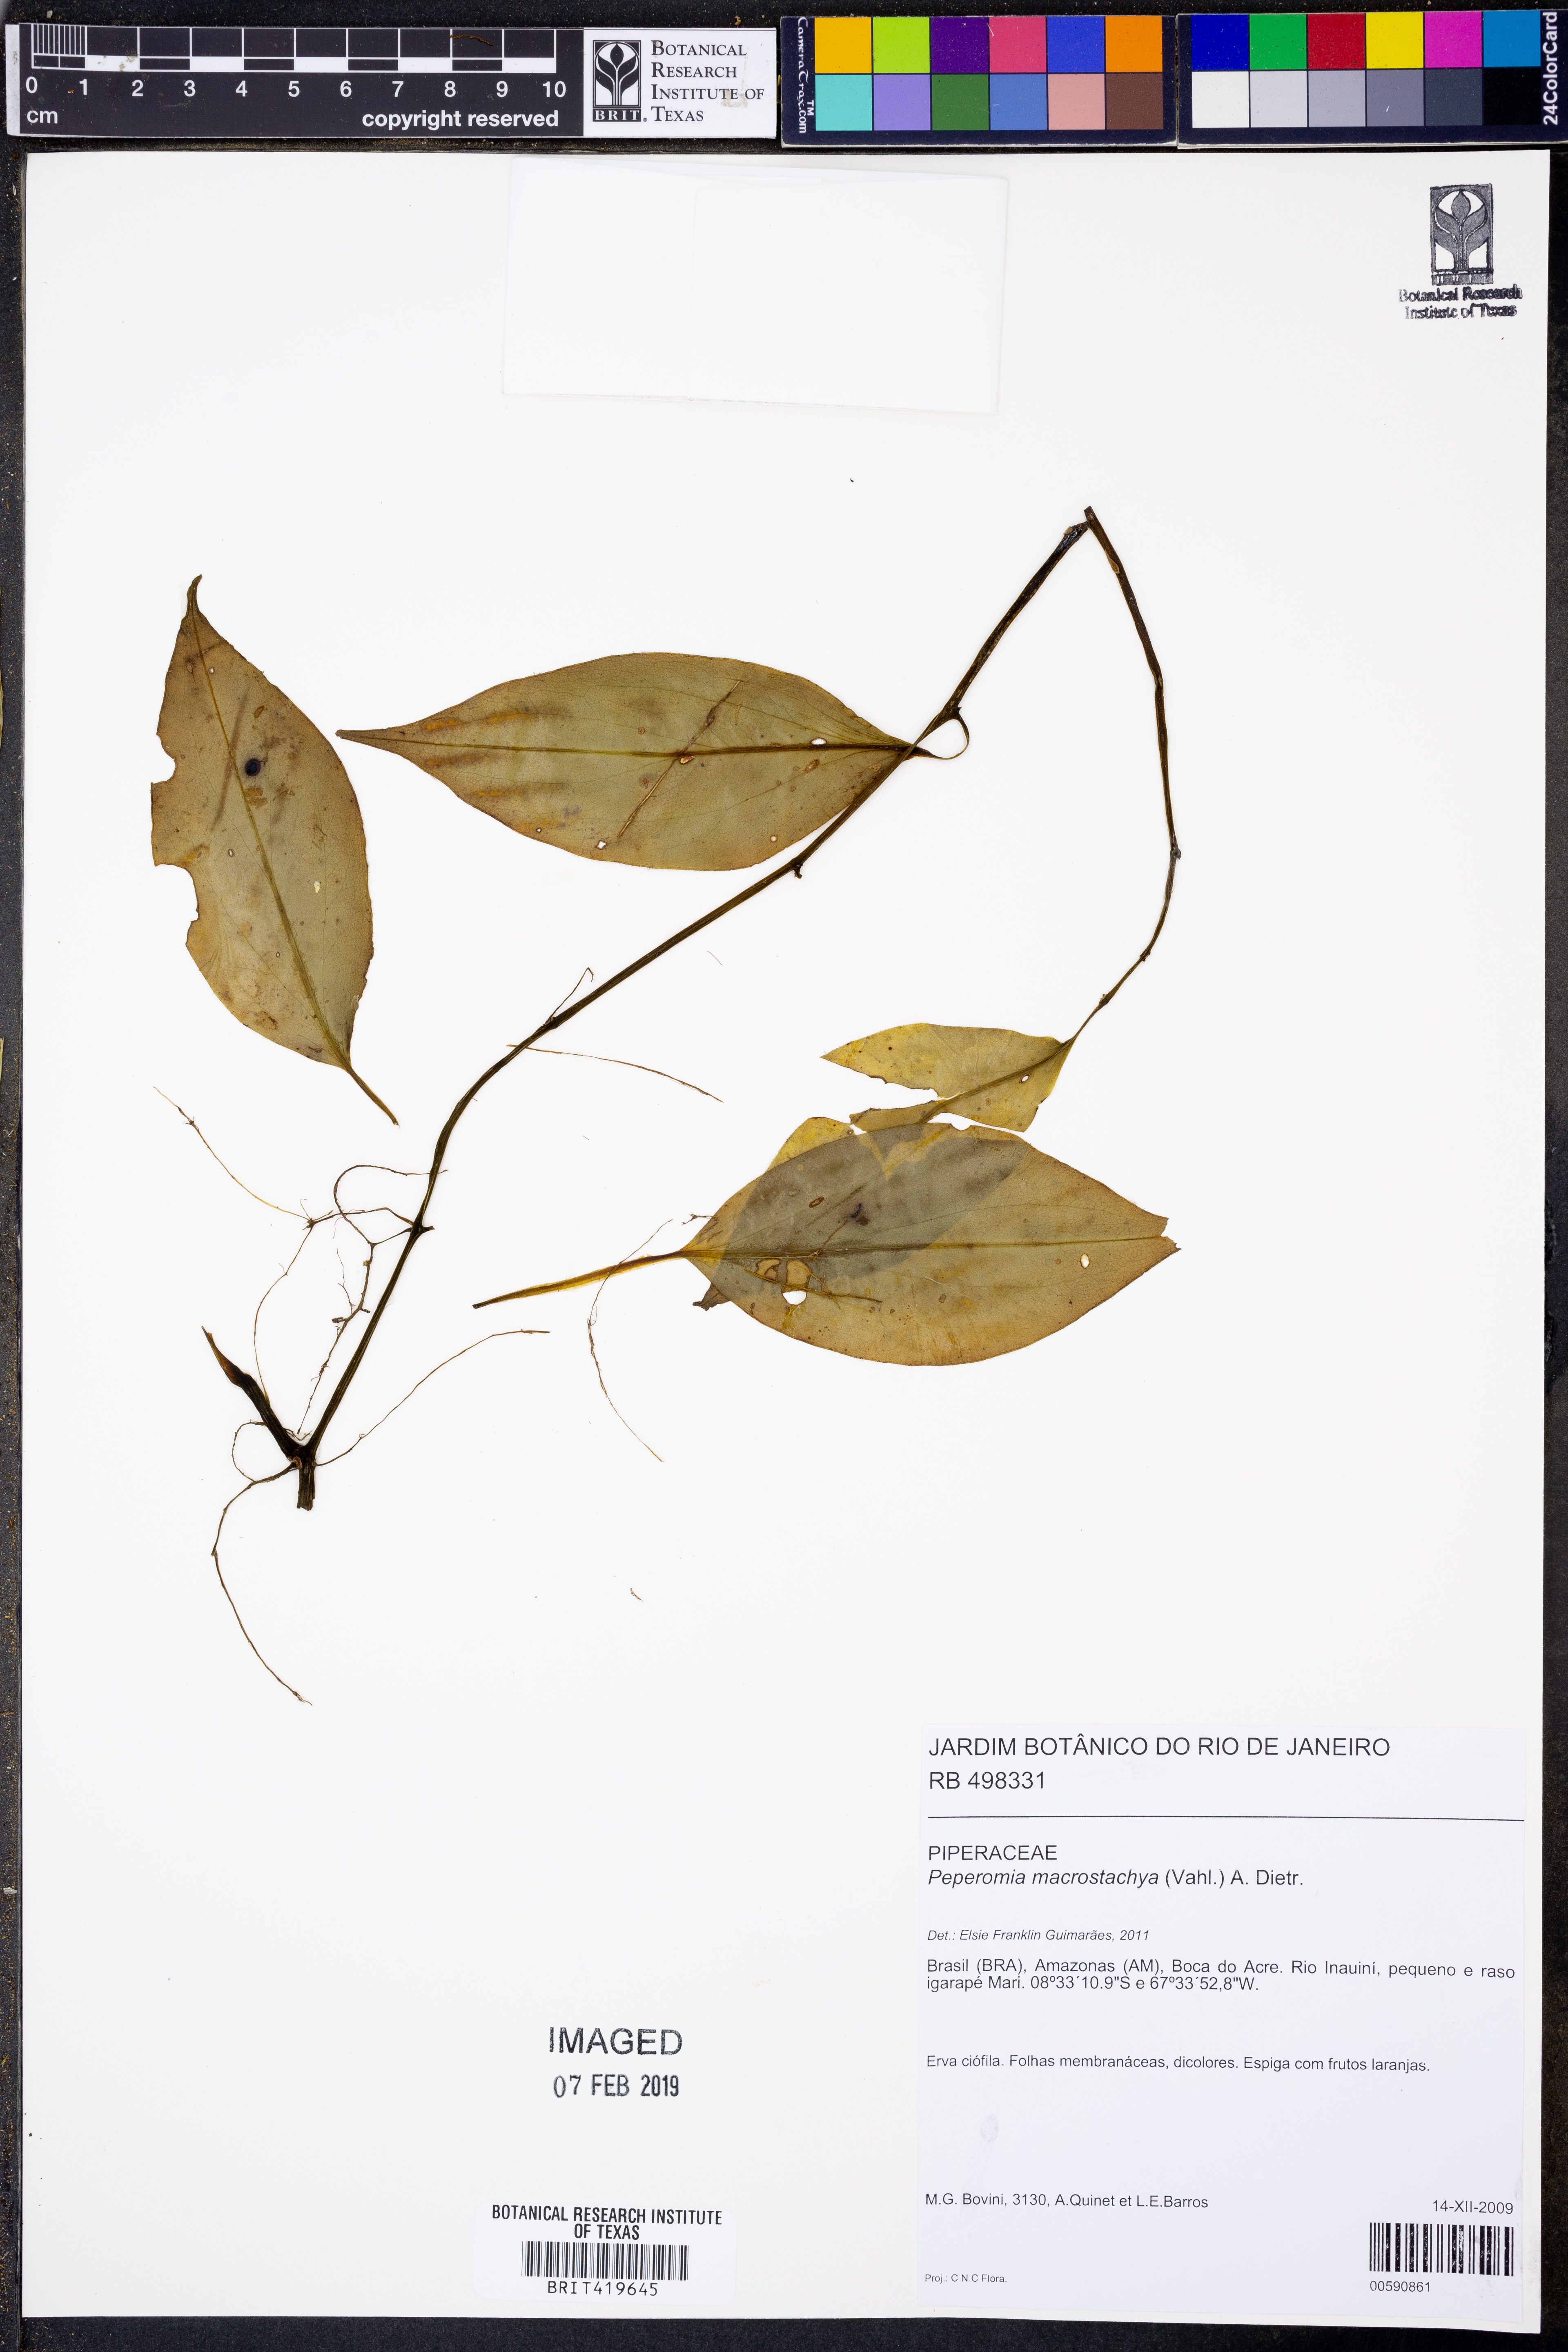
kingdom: Plantae
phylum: Tracheophyta
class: Magnoliopsida
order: Piperales
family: Piperaceae
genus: Peperomia
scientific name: Peperomia macrostachyos
